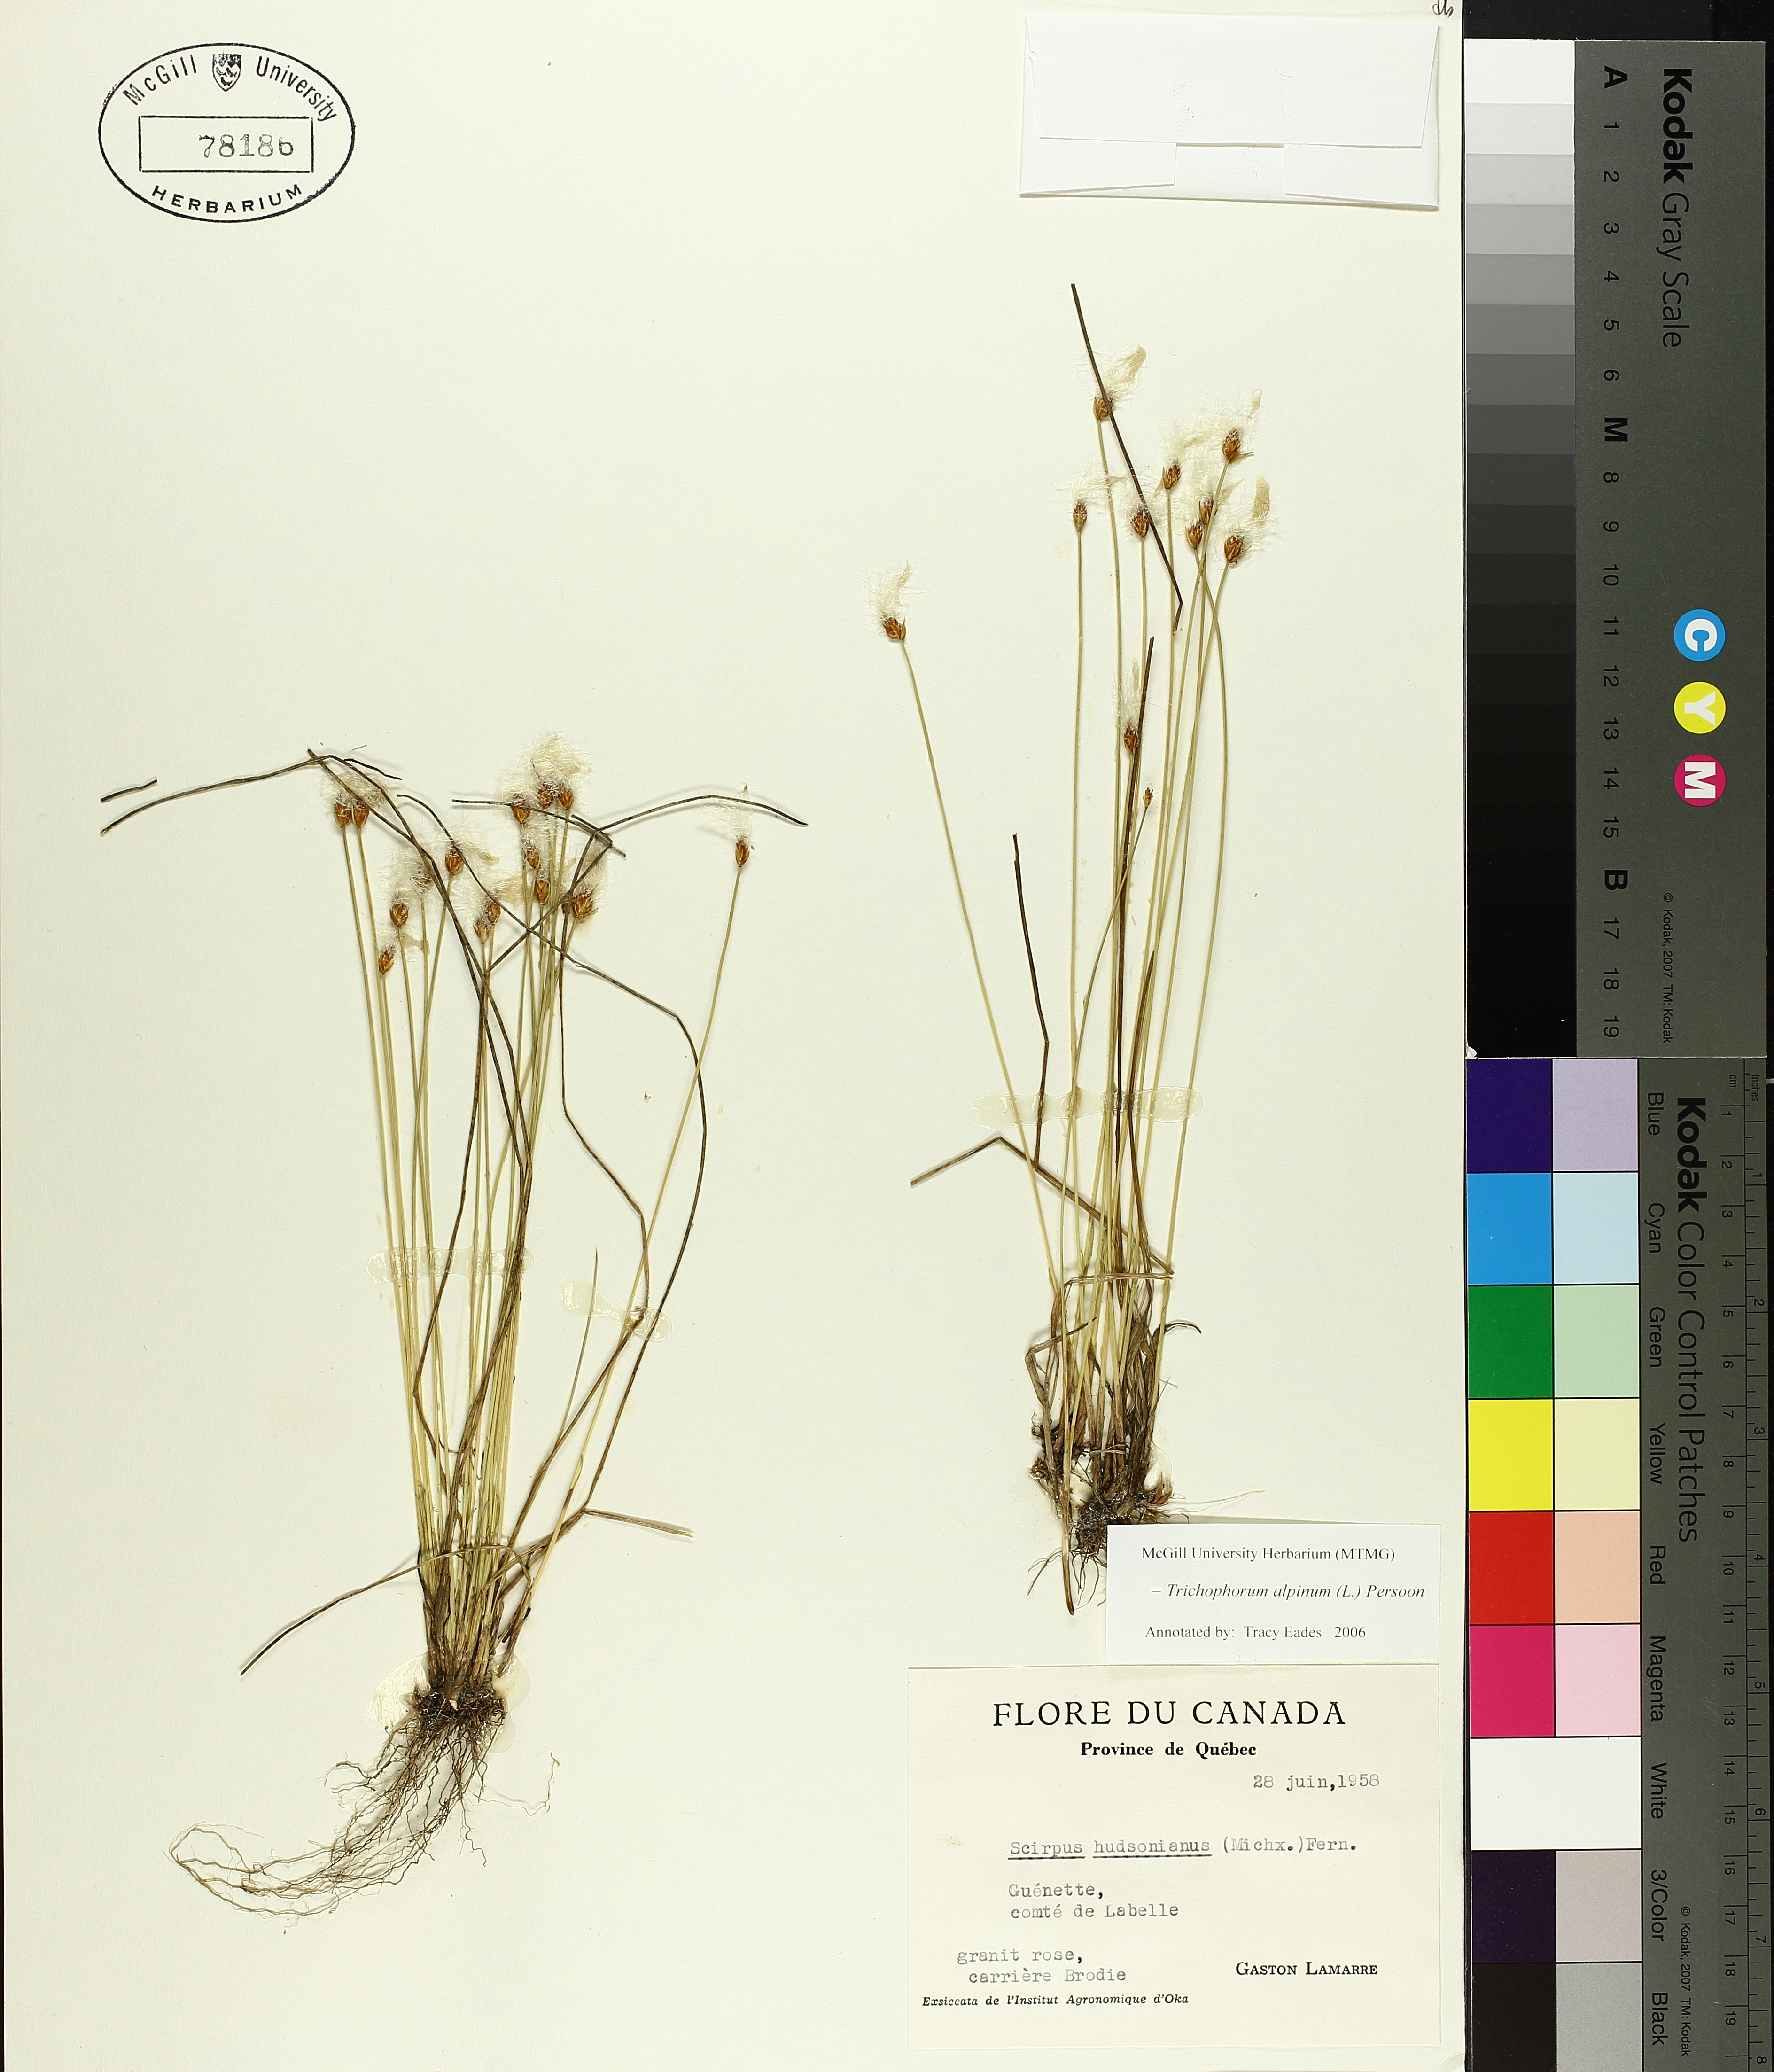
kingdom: Plantae
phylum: Tracheophyta
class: Liliopsida
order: Poales
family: Cyperaceae
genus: Trichophorum
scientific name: Trichophorum alpinum
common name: Alpine bulrush
